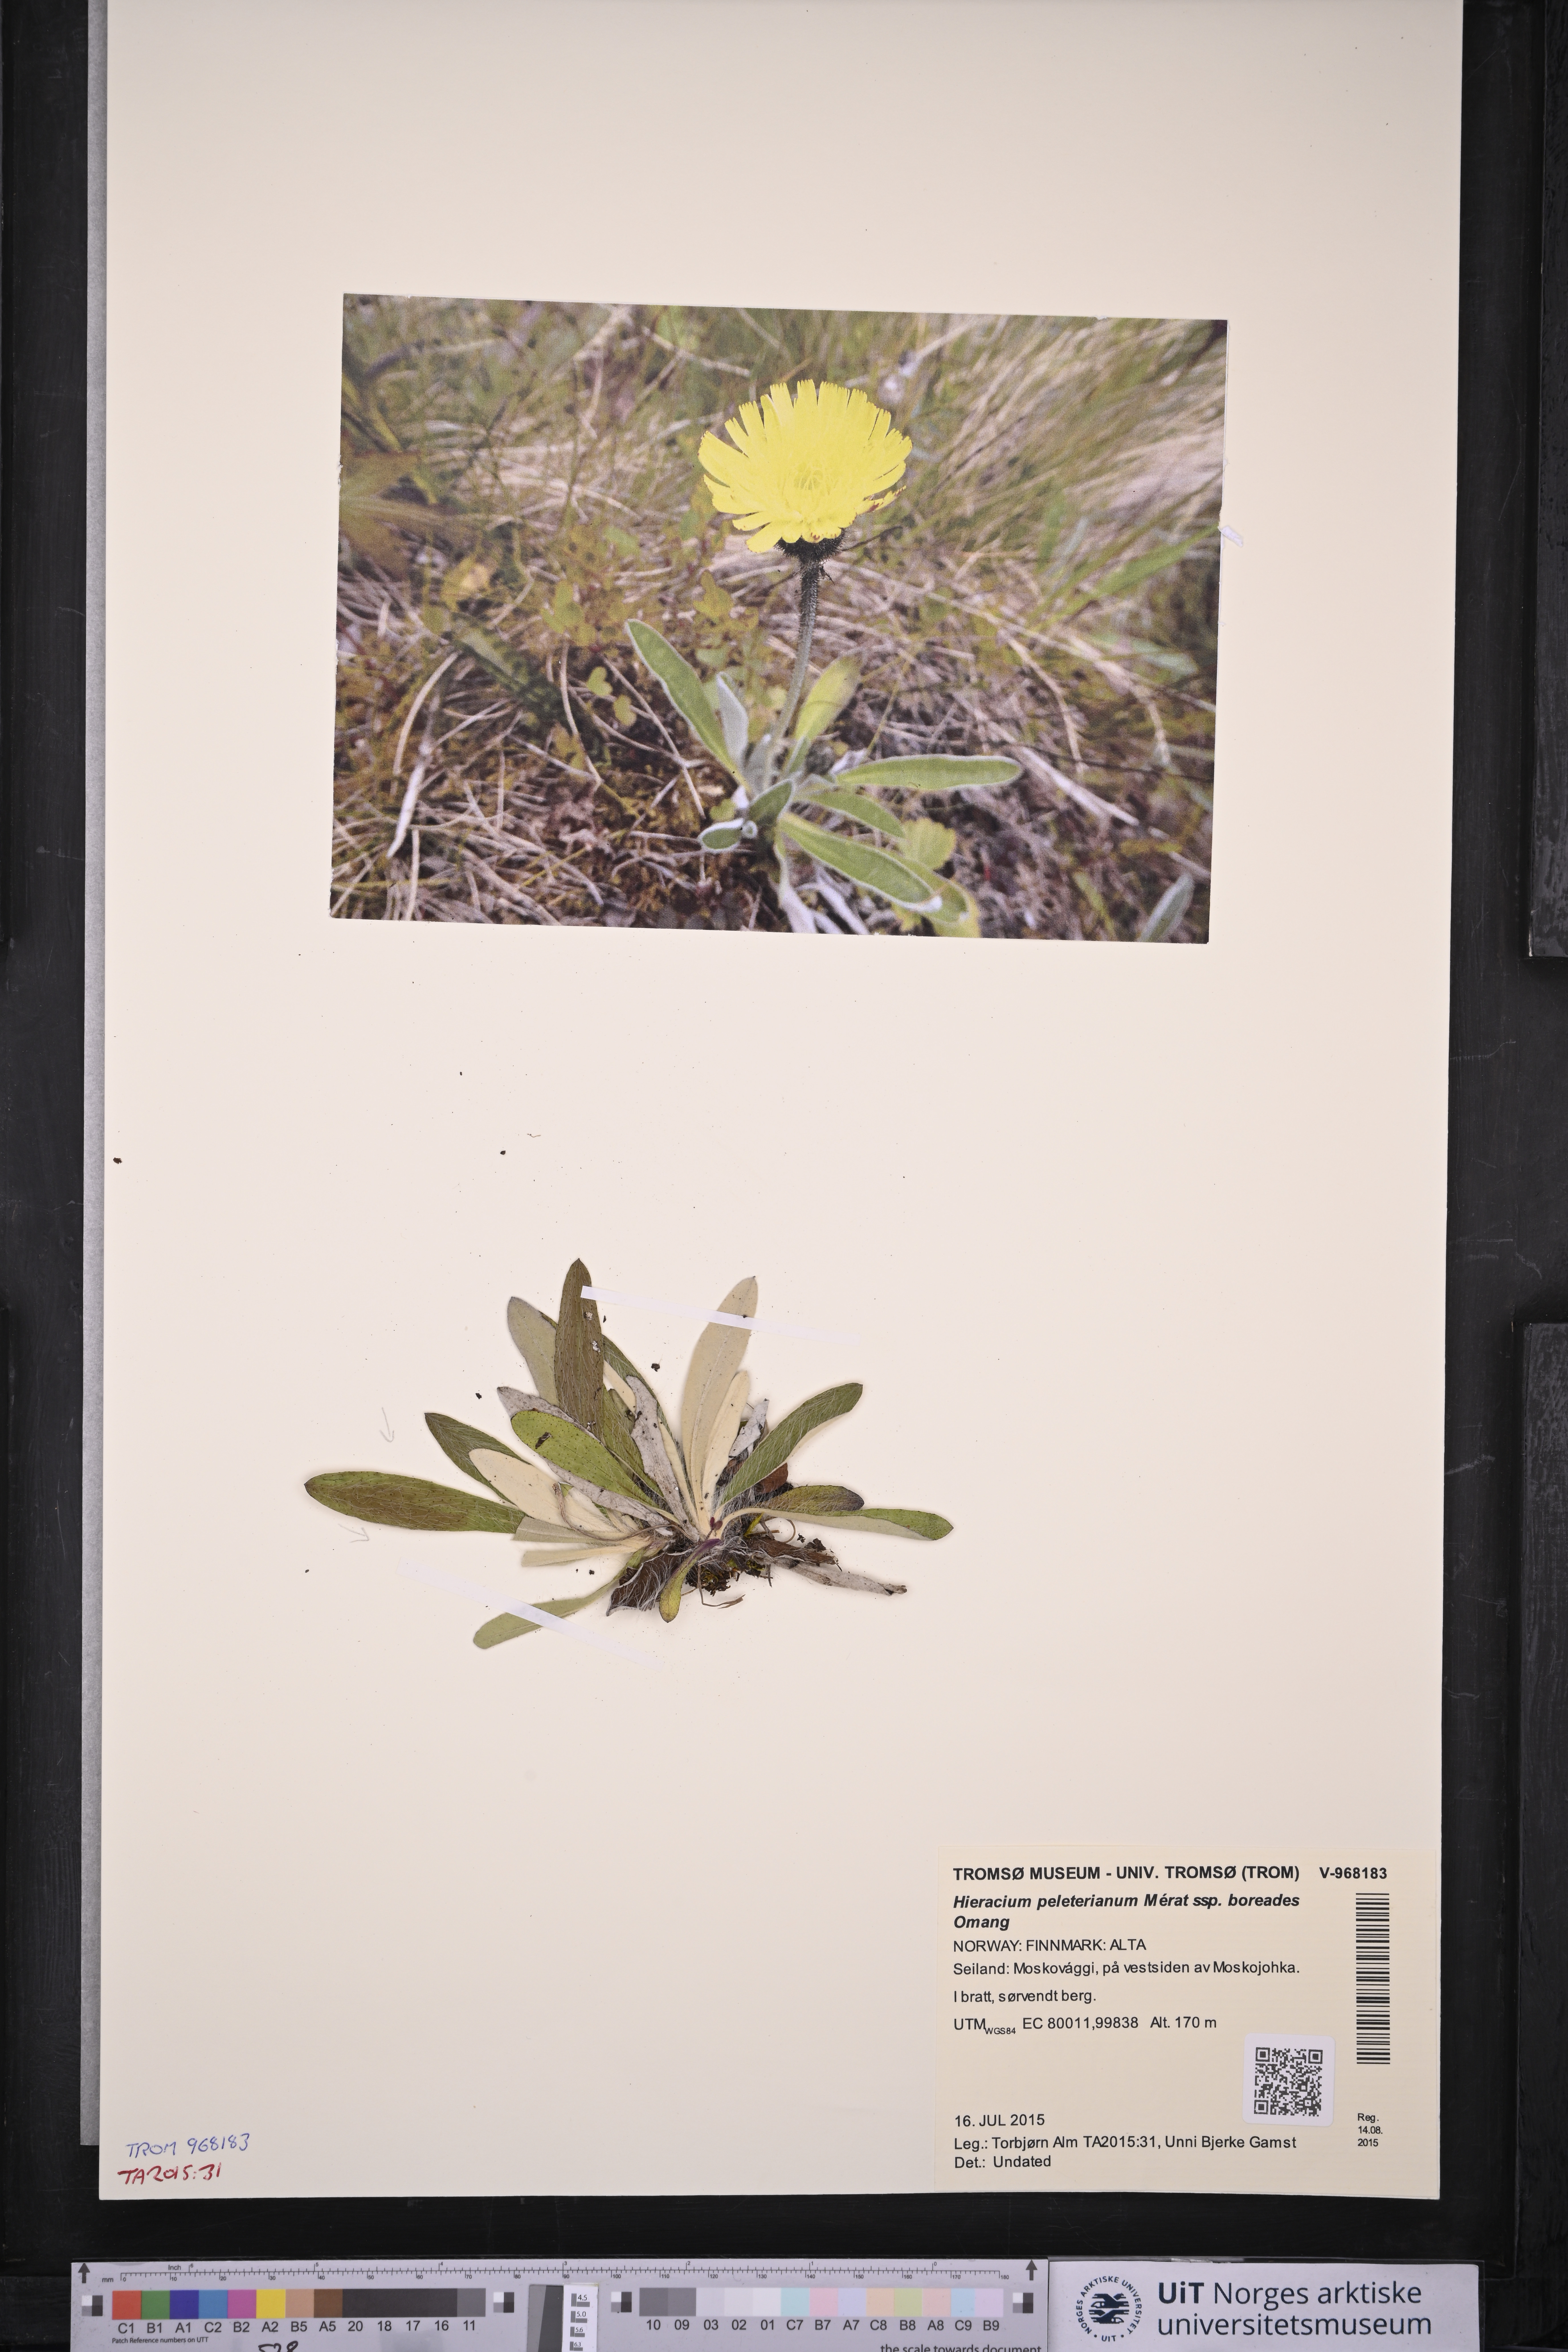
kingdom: Plantae
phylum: Tracheophyta
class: Magnoliopsida
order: Asterales
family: Asteraceae
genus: Pilosella
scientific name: Pilosella peleteriana
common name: Shaggy mouse-ear-hawkweed
